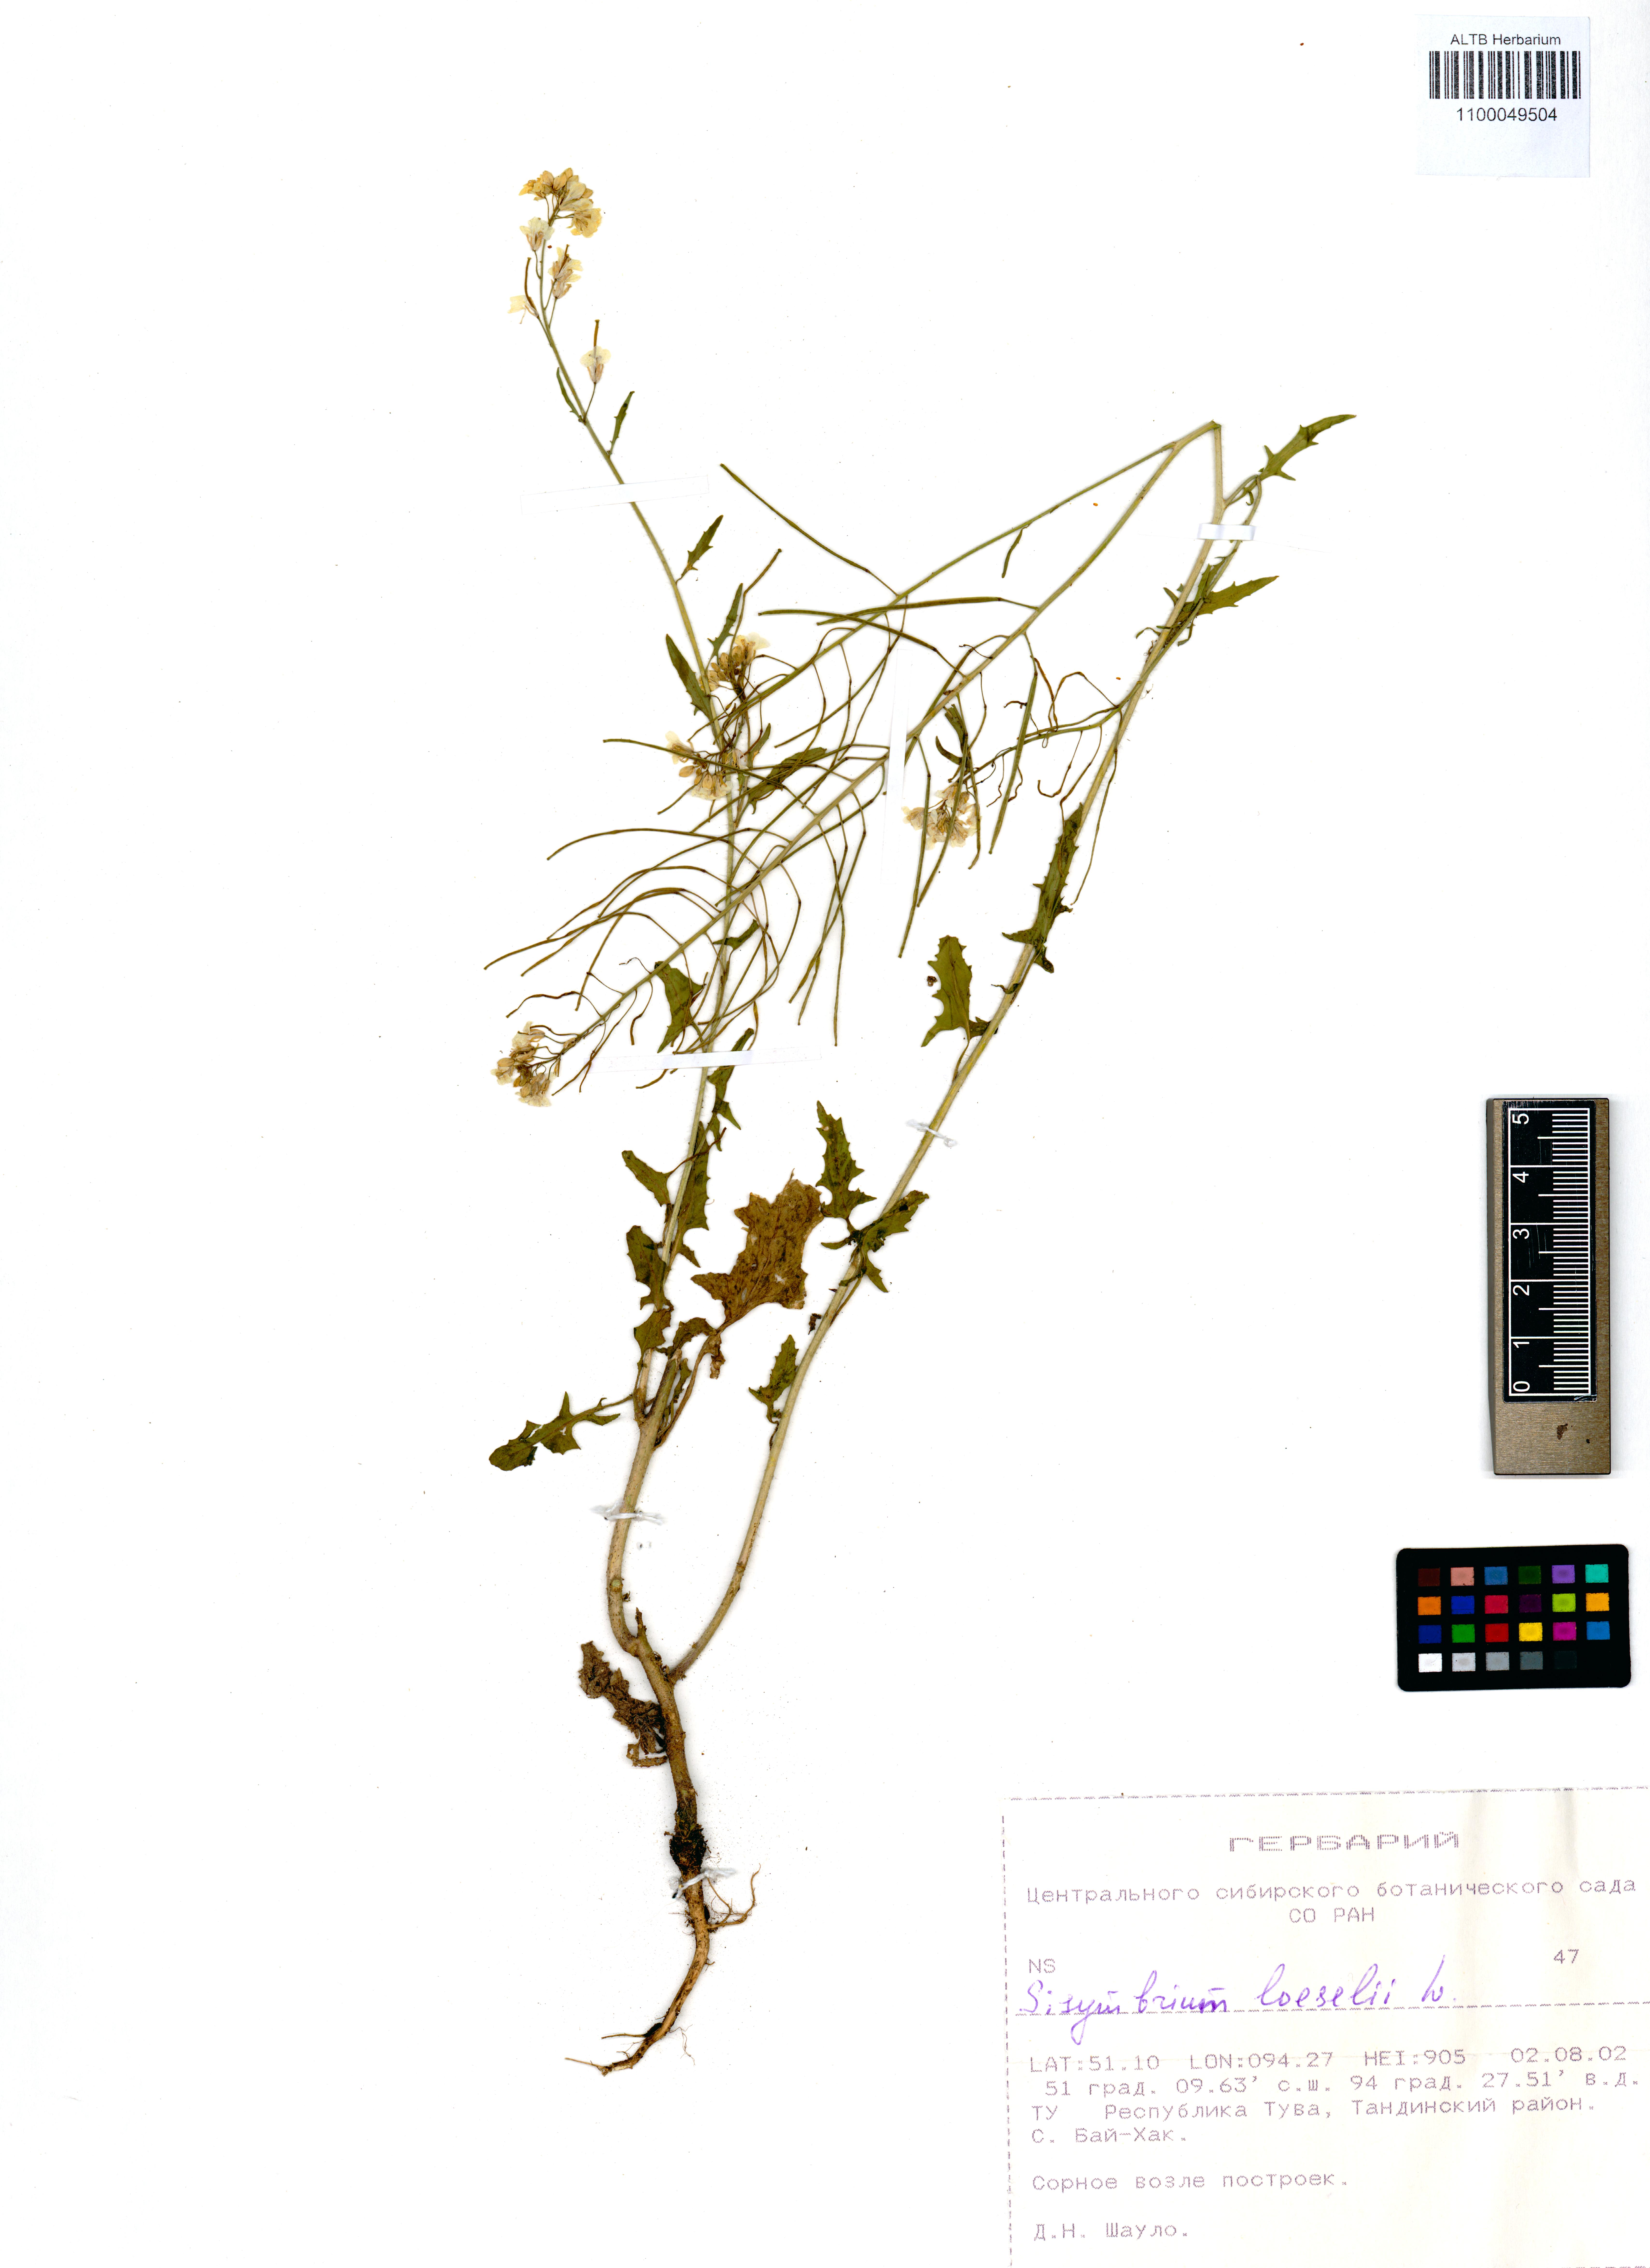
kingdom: Plantae
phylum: Tracheophyta
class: Magnoliopsida
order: Brassicales
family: Brassicaceae
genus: Sisymbrium
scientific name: Sisymbrium loeselii
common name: False london-rocket
